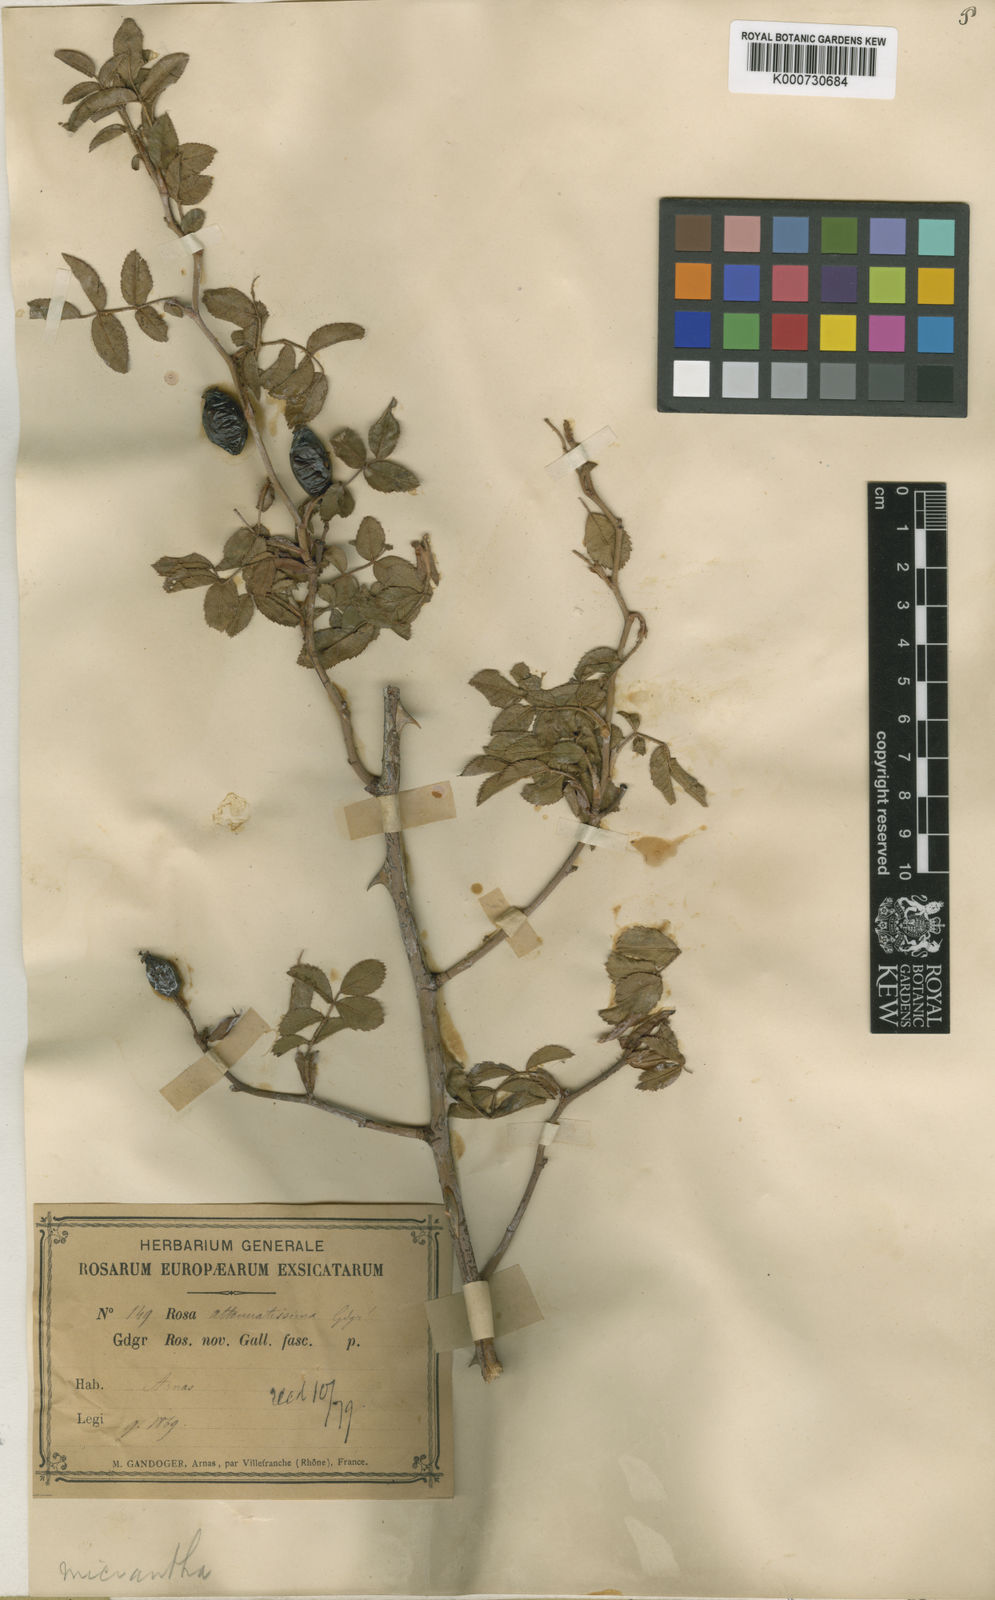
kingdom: Plantae
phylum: Tracheophyta
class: Magnoliopsida
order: Rosales
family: Rosaceae
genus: Rosa
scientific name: Rosa
